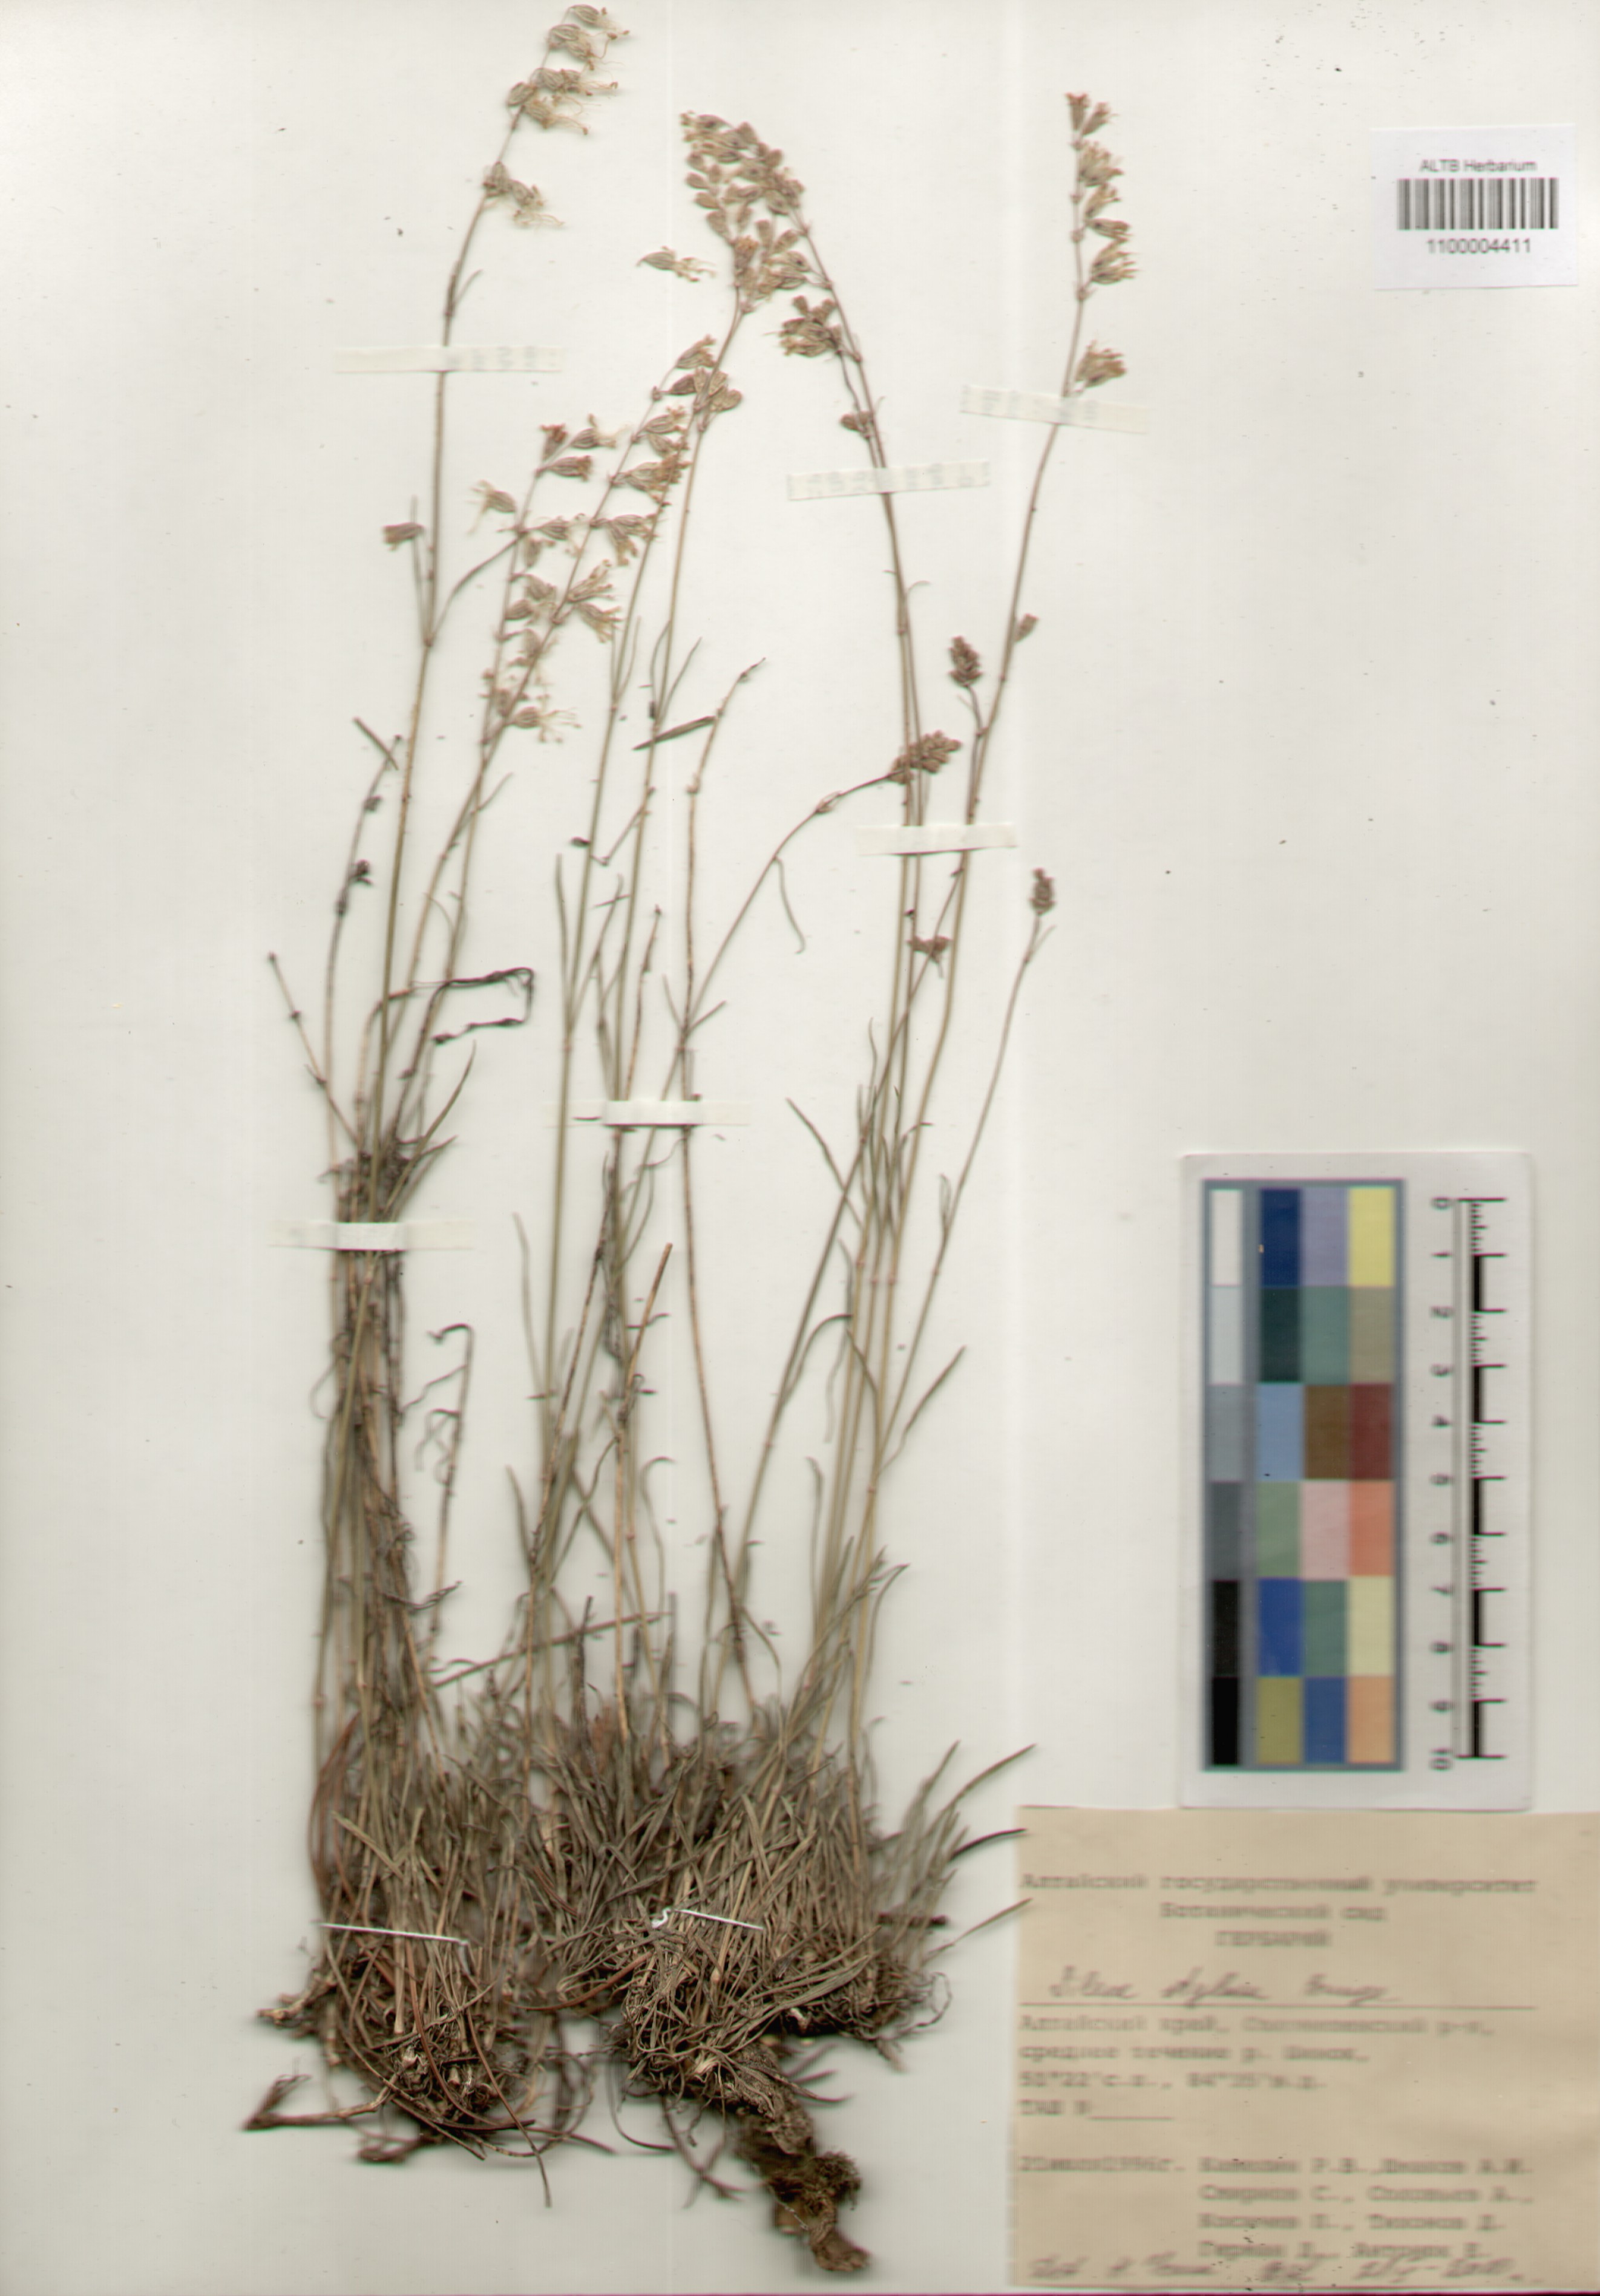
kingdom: Plantae
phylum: Tracheophyta
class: Magnoliopsida
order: Caryophyllales
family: Caryophyllaceae
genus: Silene
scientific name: Silene graminifolia
